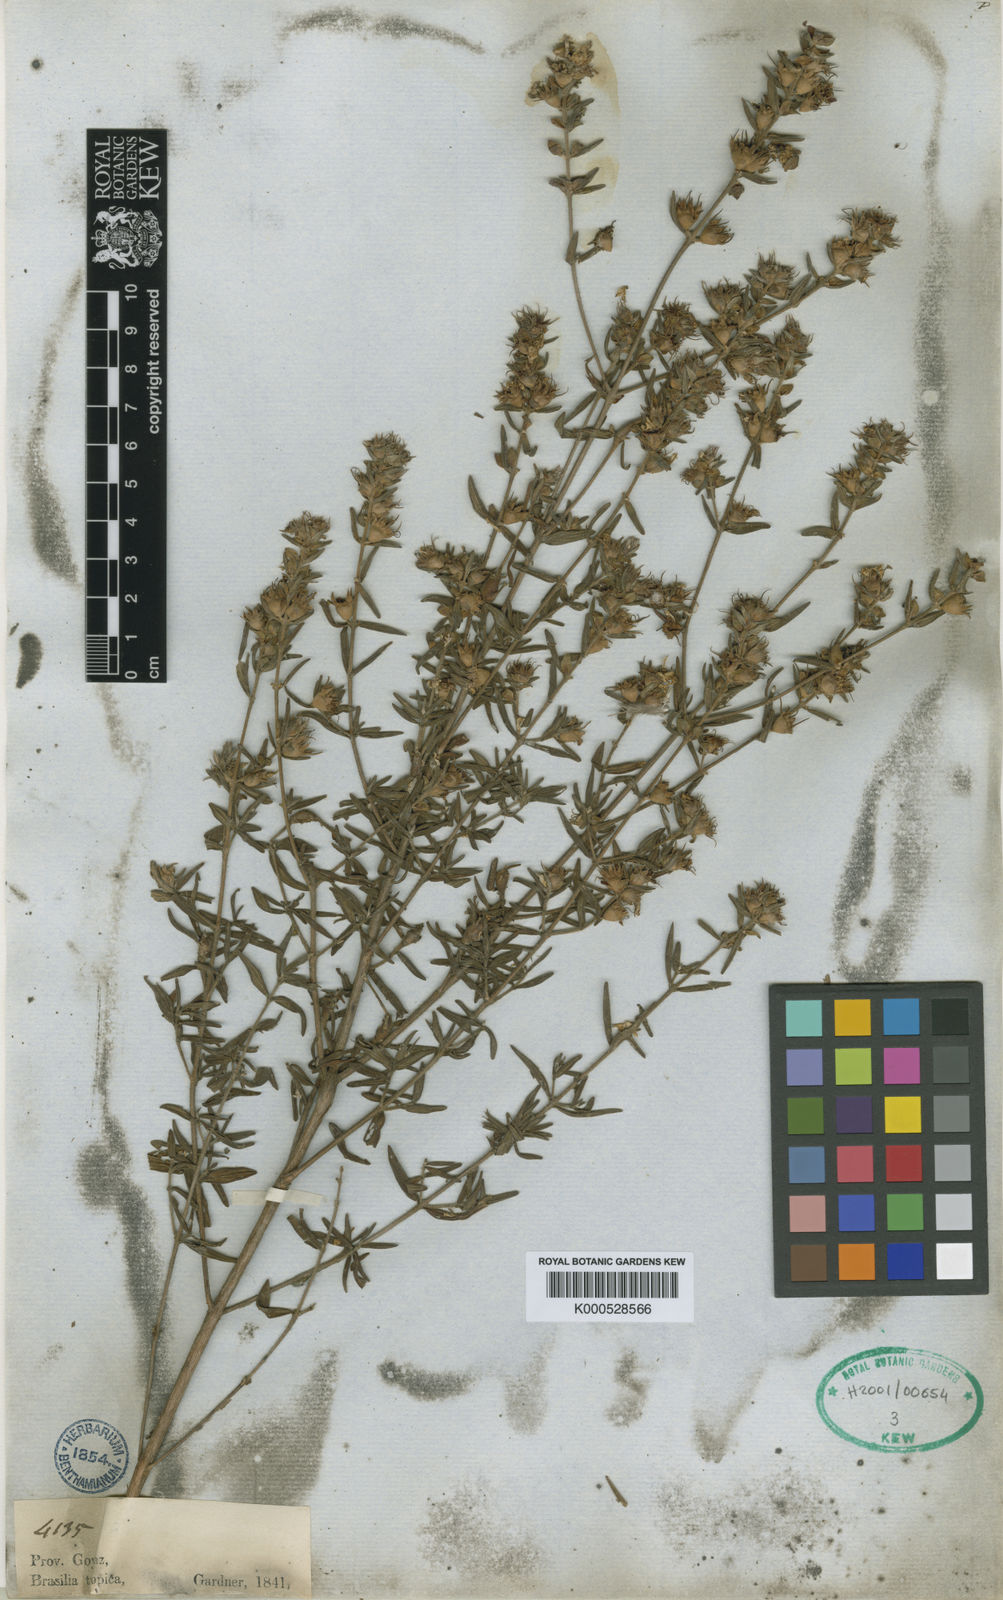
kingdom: Plantae
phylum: Tracheophyta
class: Magnoliopsida
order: Myrtales
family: Lythraceae
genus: Diplusodon
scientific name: Diplusodon macrodon
